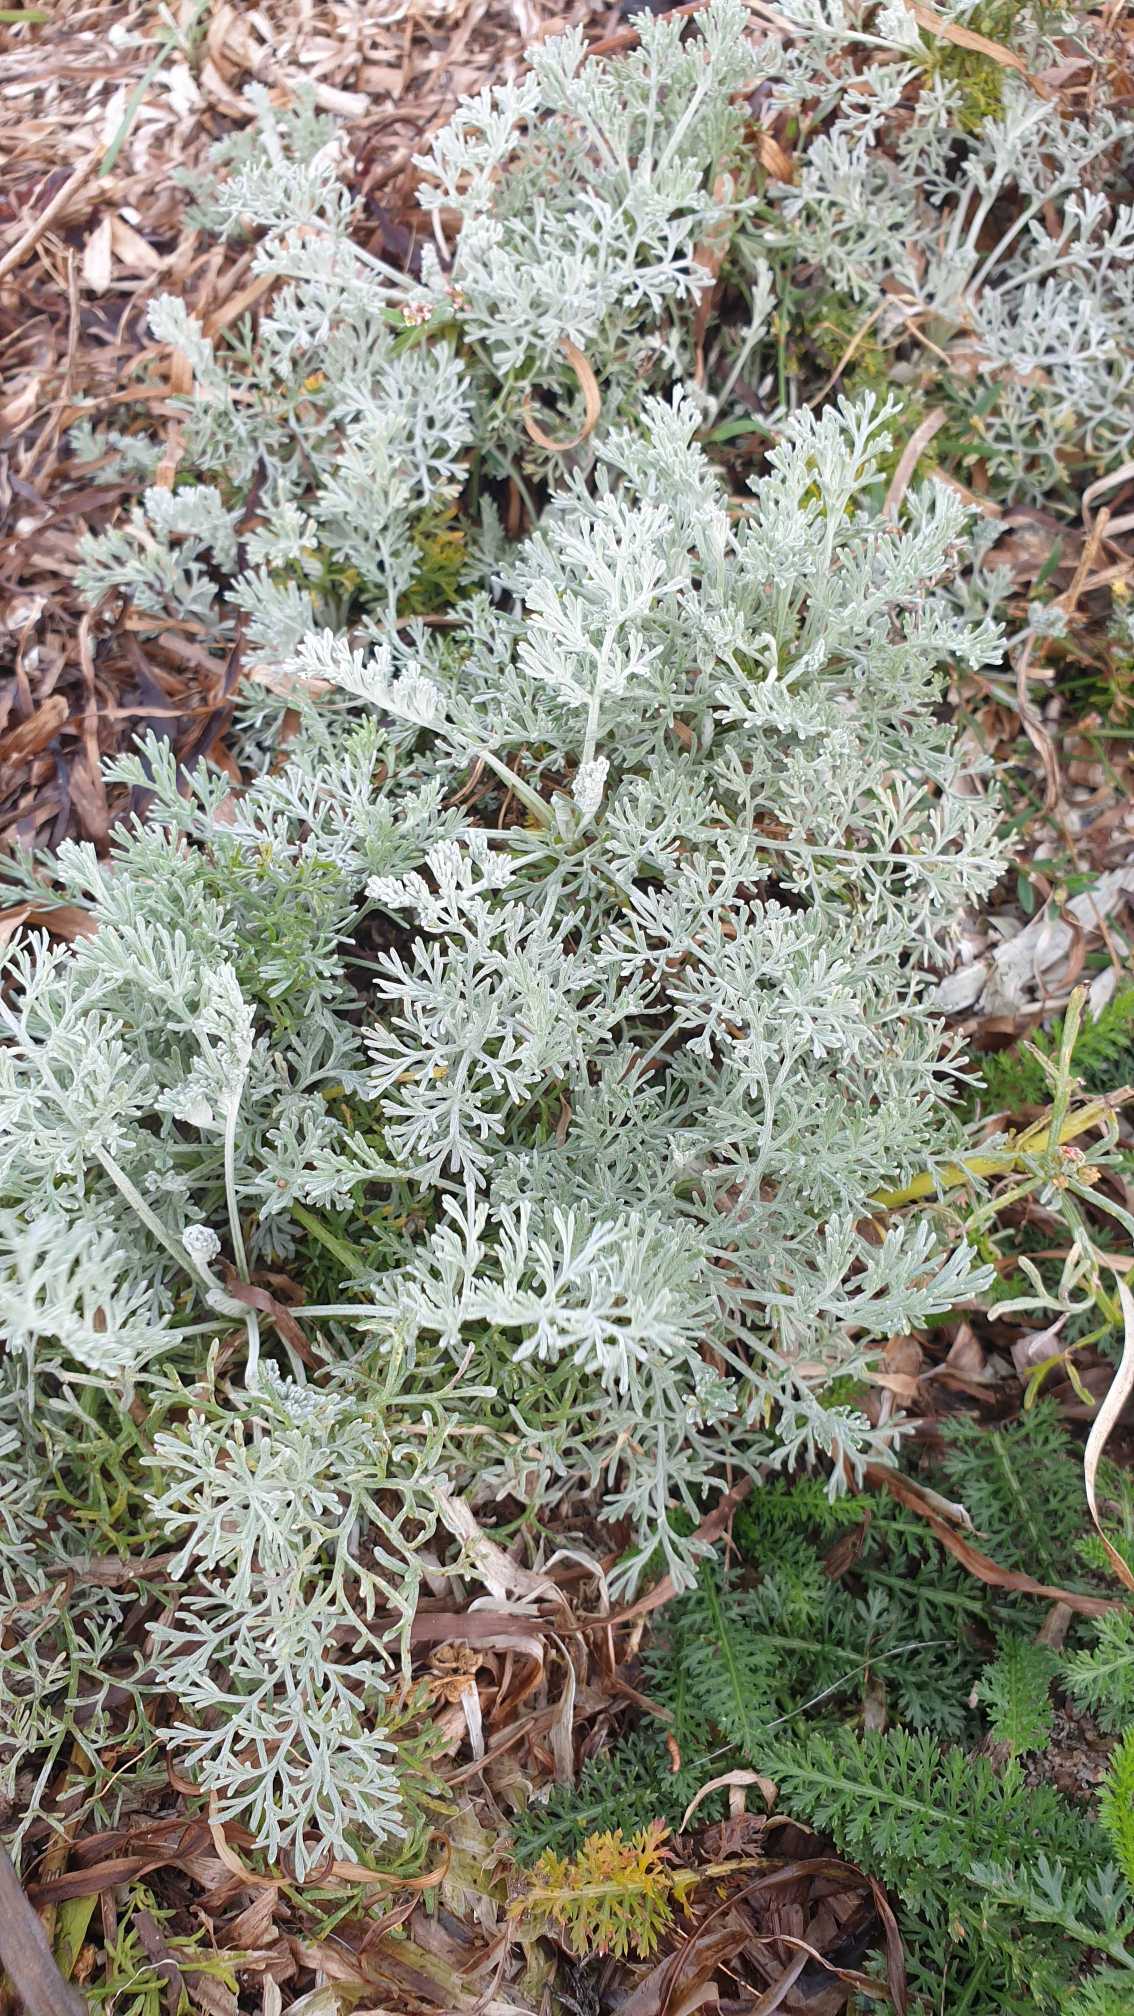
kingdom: Plantae
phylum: Tracheophyta
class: Magnoliopsida
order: Asterales
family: Asteraceae
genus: Artemisia
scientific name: Artemisia maritima
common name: Strandmalurt
